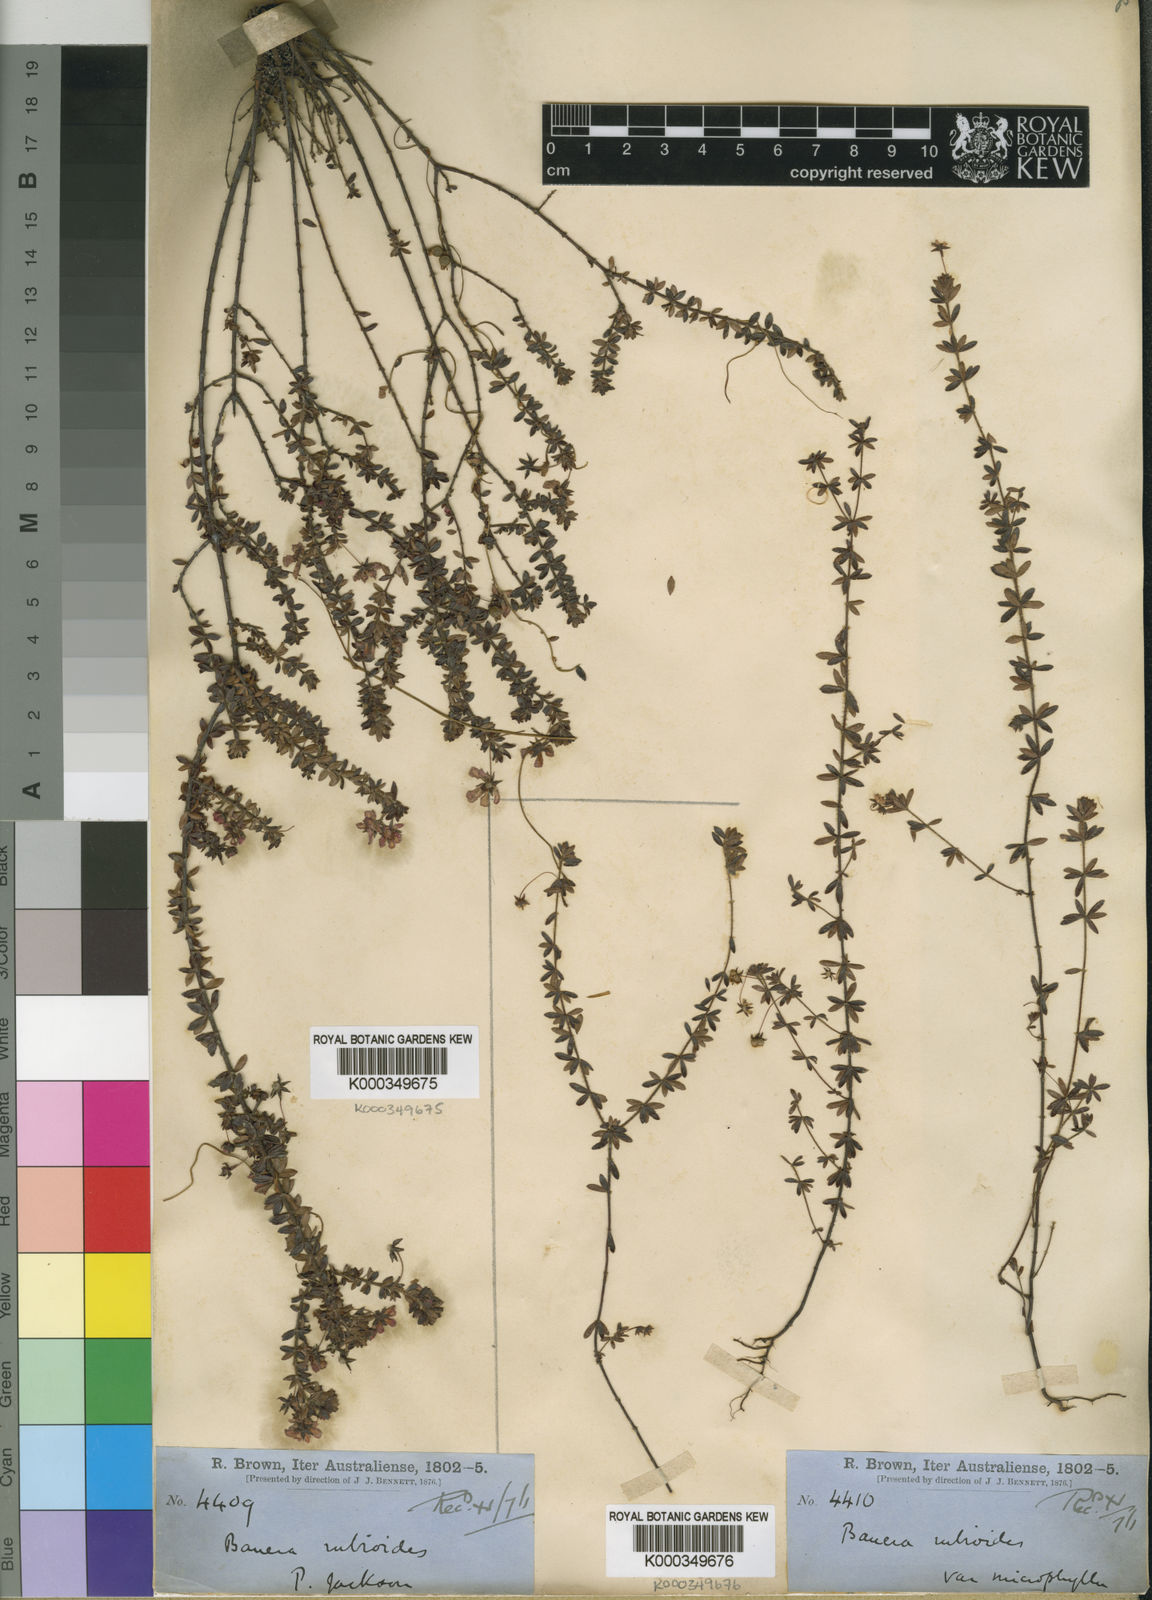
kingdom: Plantae
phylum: Tracheophyta
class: Magnoliopsida
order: Oxalidales
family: Cunoniaceae
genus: Bauera
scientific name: Bauera rubioides
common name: River-rose
